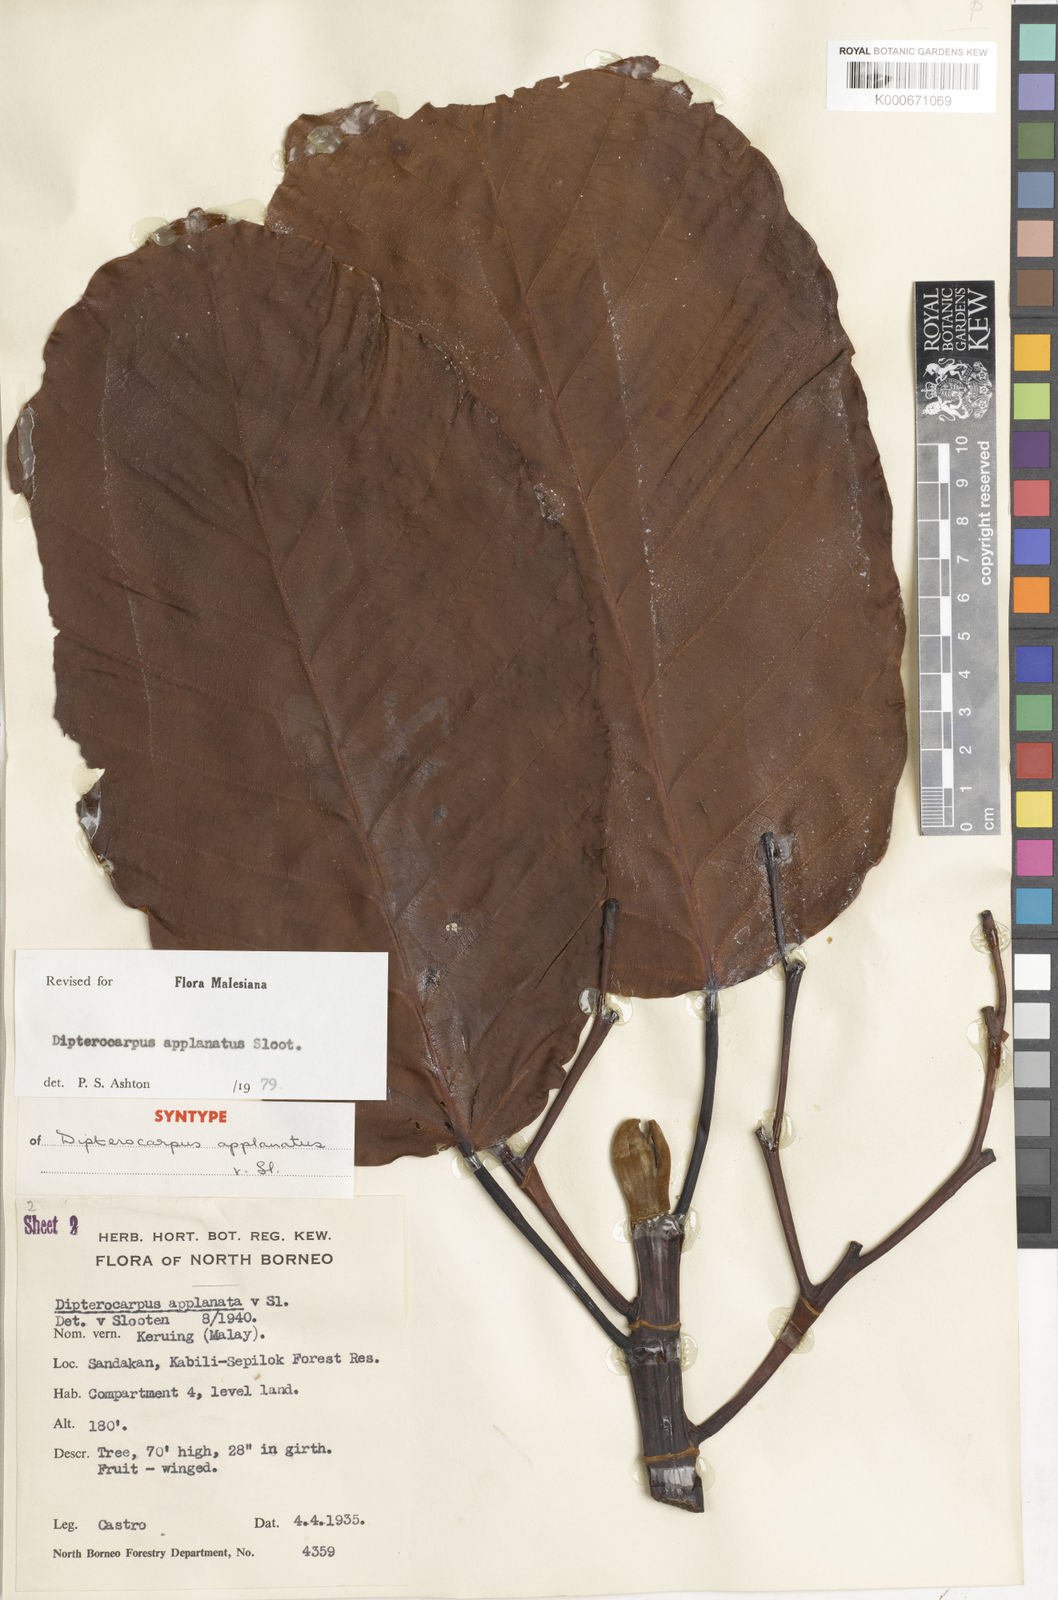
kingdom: Plantae
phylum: Tracheophyta
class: Magnoliopsida
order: Malvales
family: Dipterocarpaceae
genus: Dipterocarpus
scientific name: Dipterocarpus applanatus
